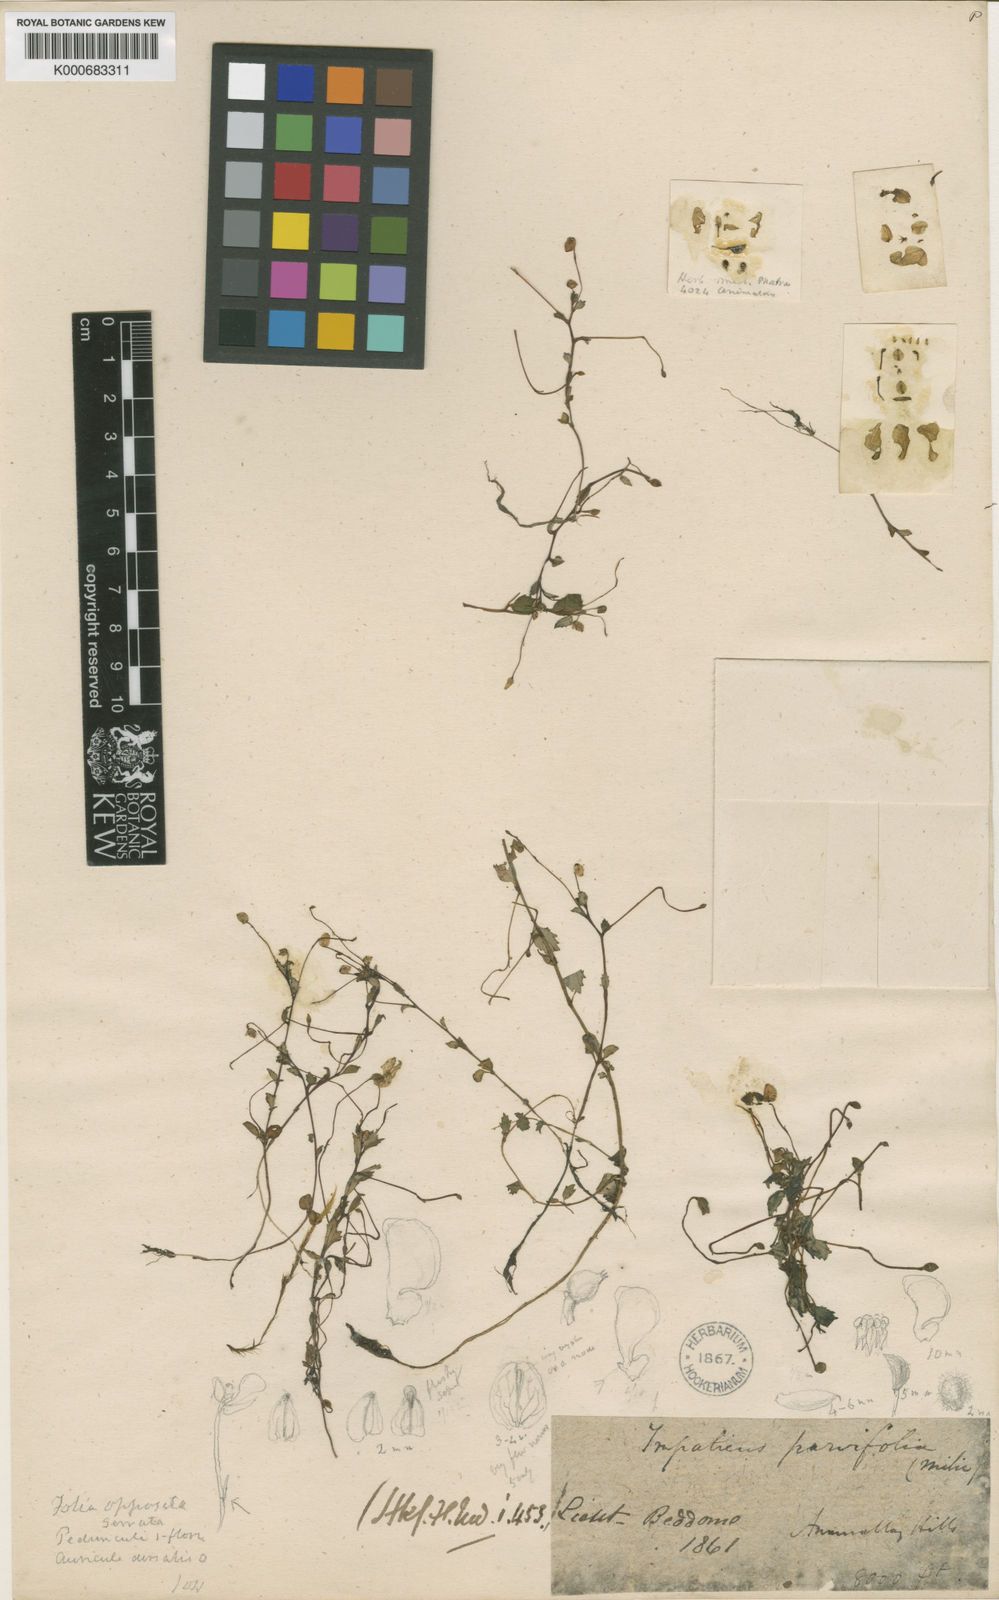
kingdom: Plantae
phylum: Tracheophyta
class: Magnoliopsida
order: Ericales
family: Balsaminaceae
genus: Impatiens
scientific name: Impatiens parvifolia
